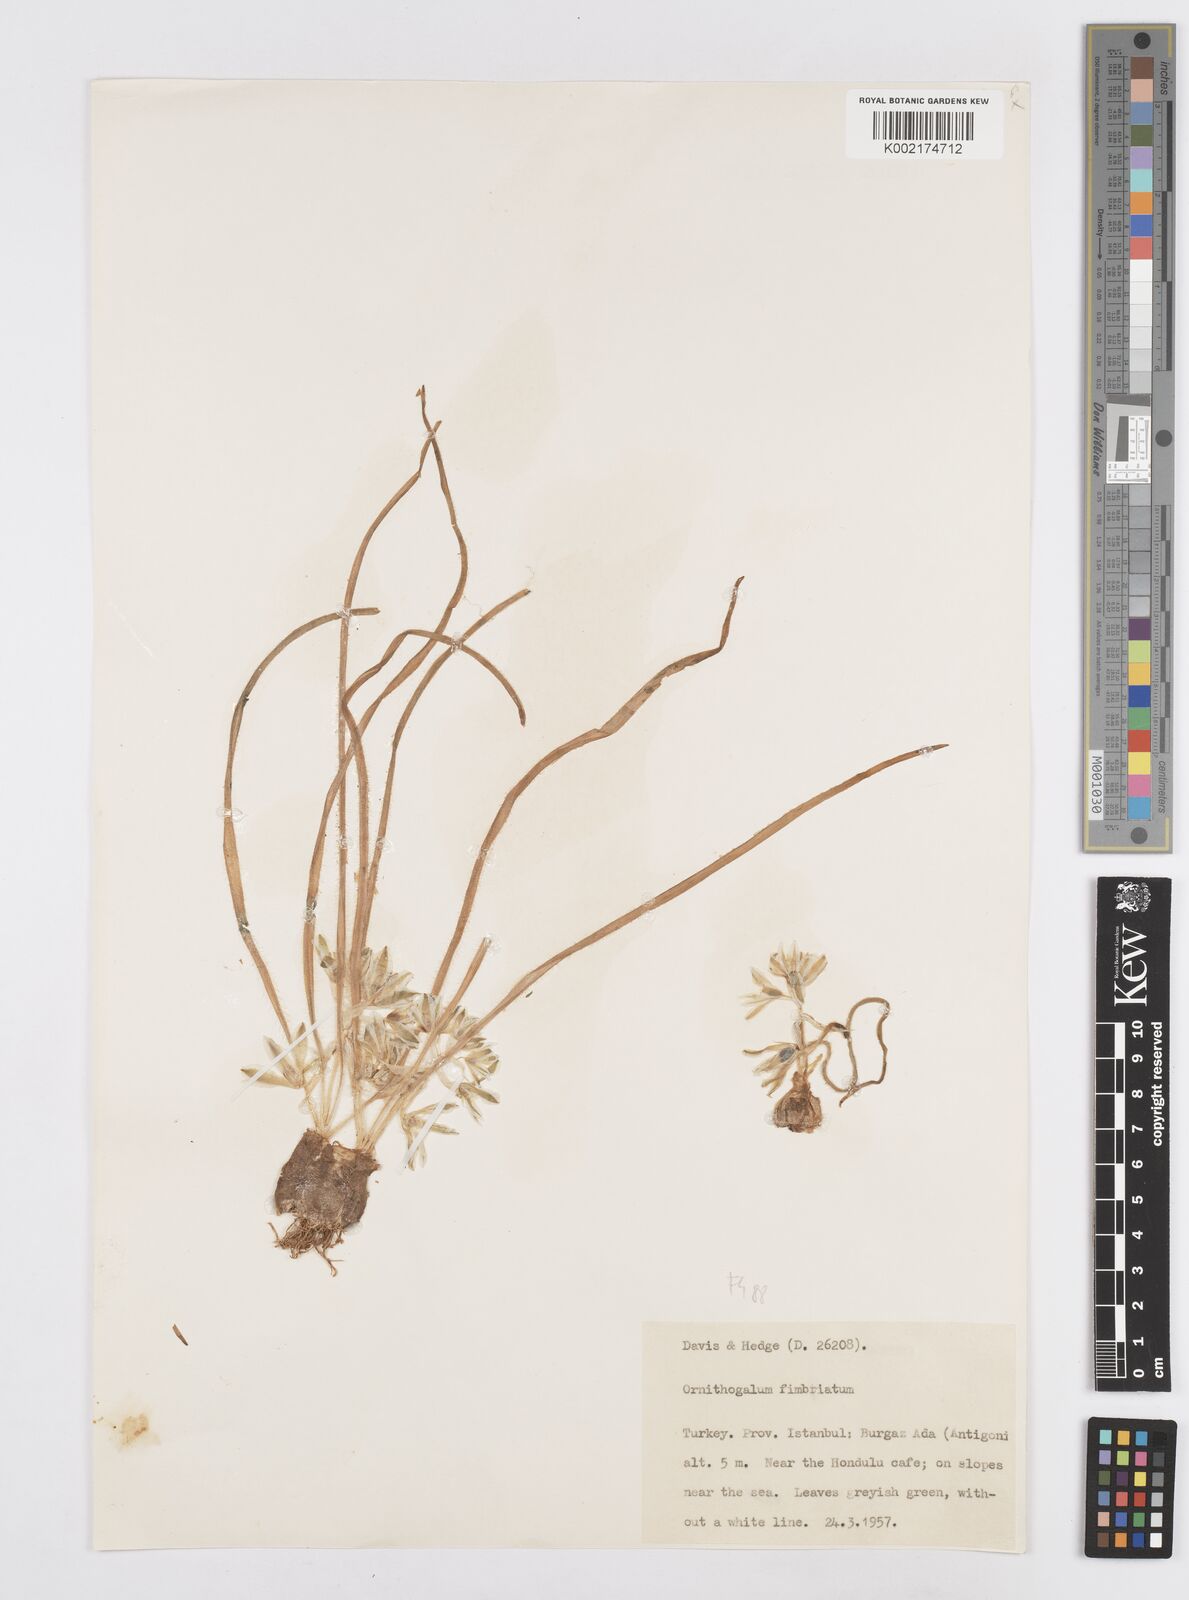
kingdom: Plantae
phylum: Tracheophyta
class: Liliopsida
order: Asparagales
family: Asparagaceae
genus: Ornithogalum
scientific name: Ornithogalum fimbriatum
